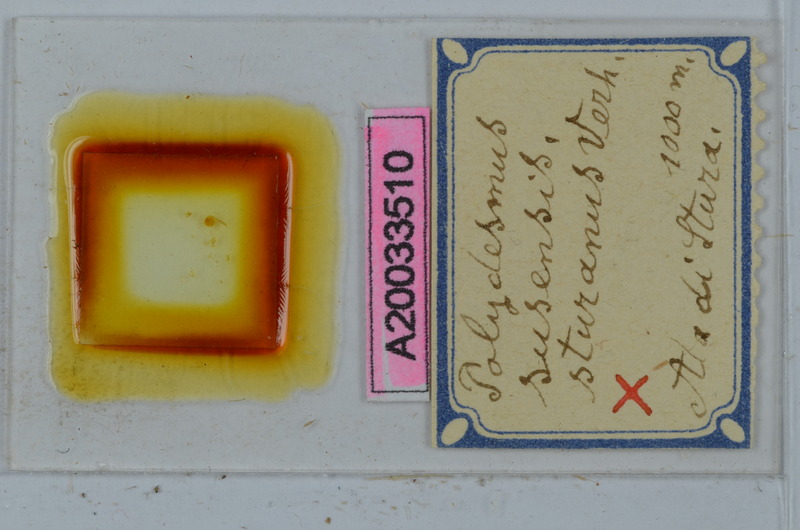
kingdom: Animalia
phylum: Arthropoda
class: Diplopoda
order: Polydesmida
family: Polydesmidae
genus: Polydesmus
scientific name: Polydesmus susensis
